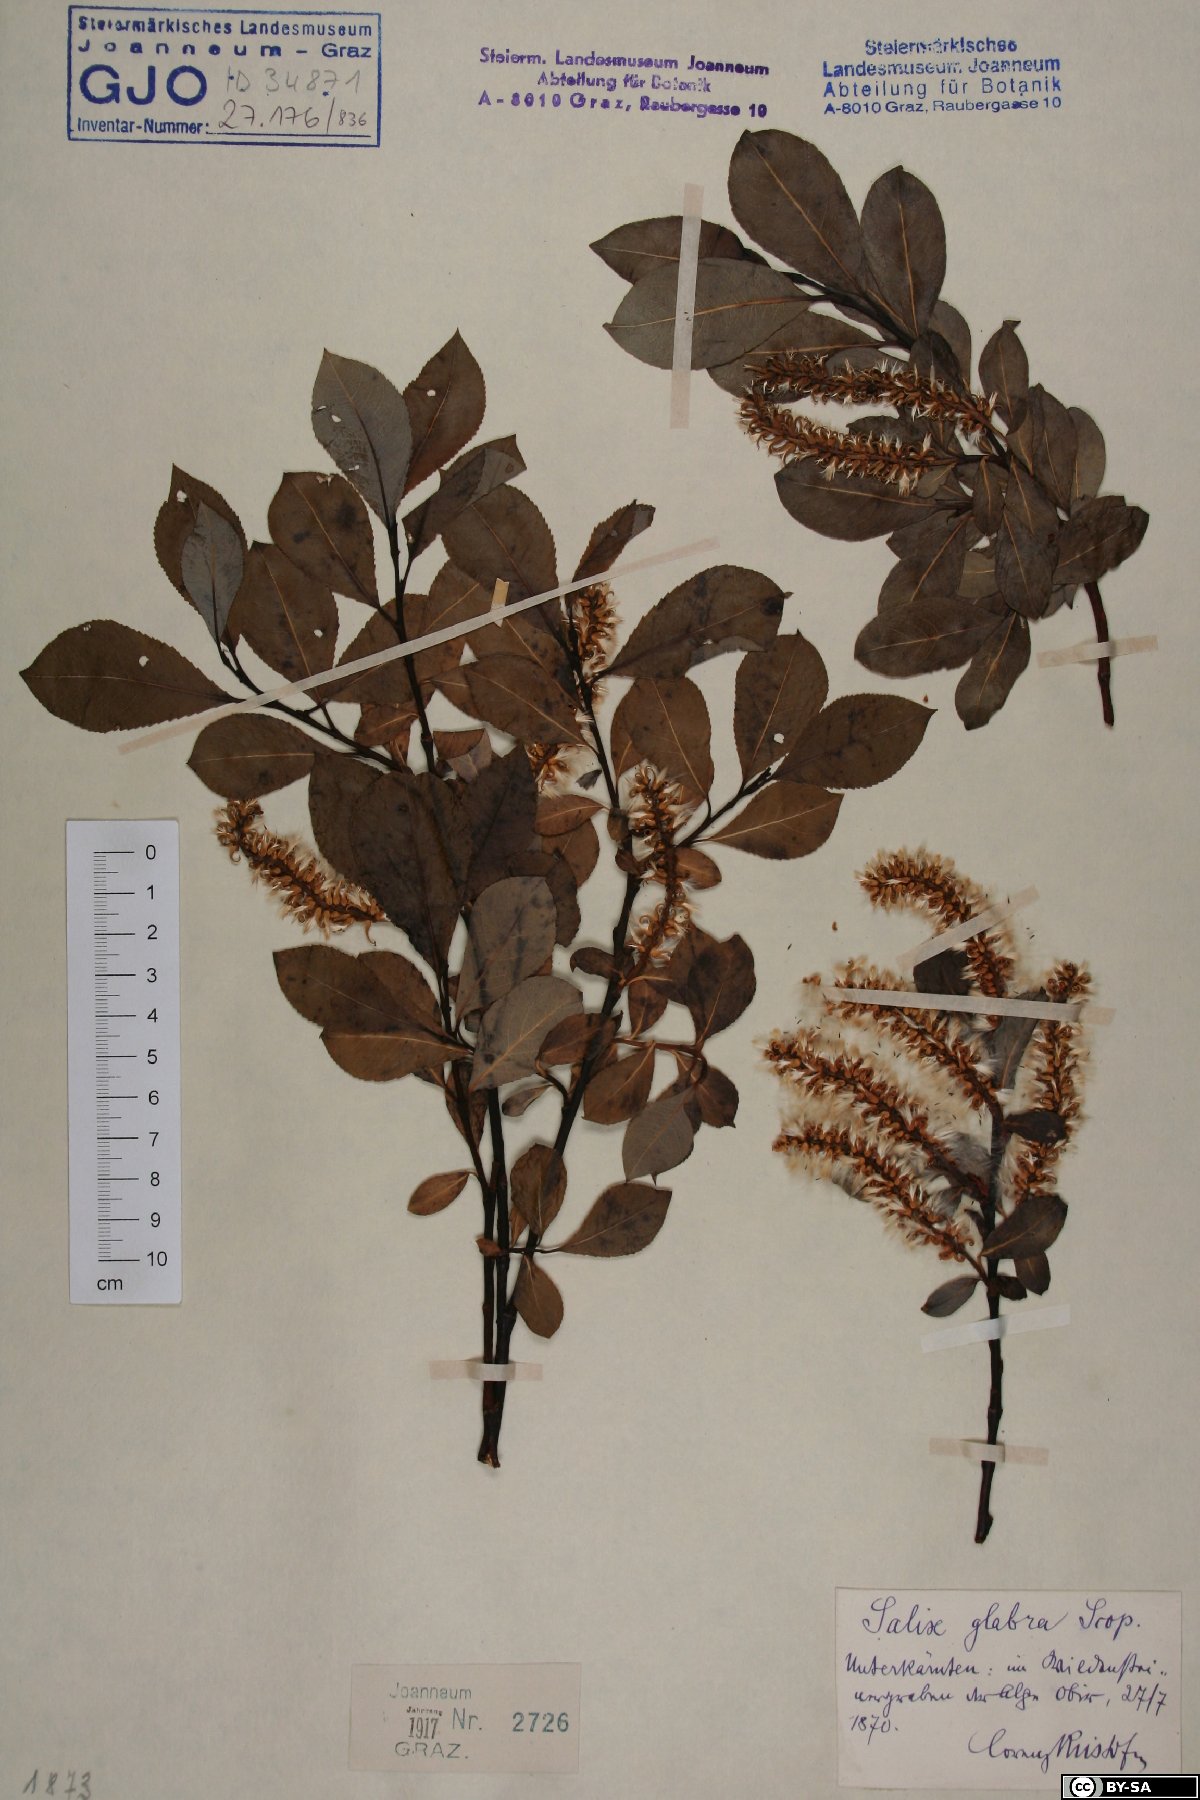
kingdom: Plantae
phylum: Tracheophyta
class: Magnoliopsida
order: Malpighiales
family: Salicaceae
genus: Salix
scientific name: Salix glabra
